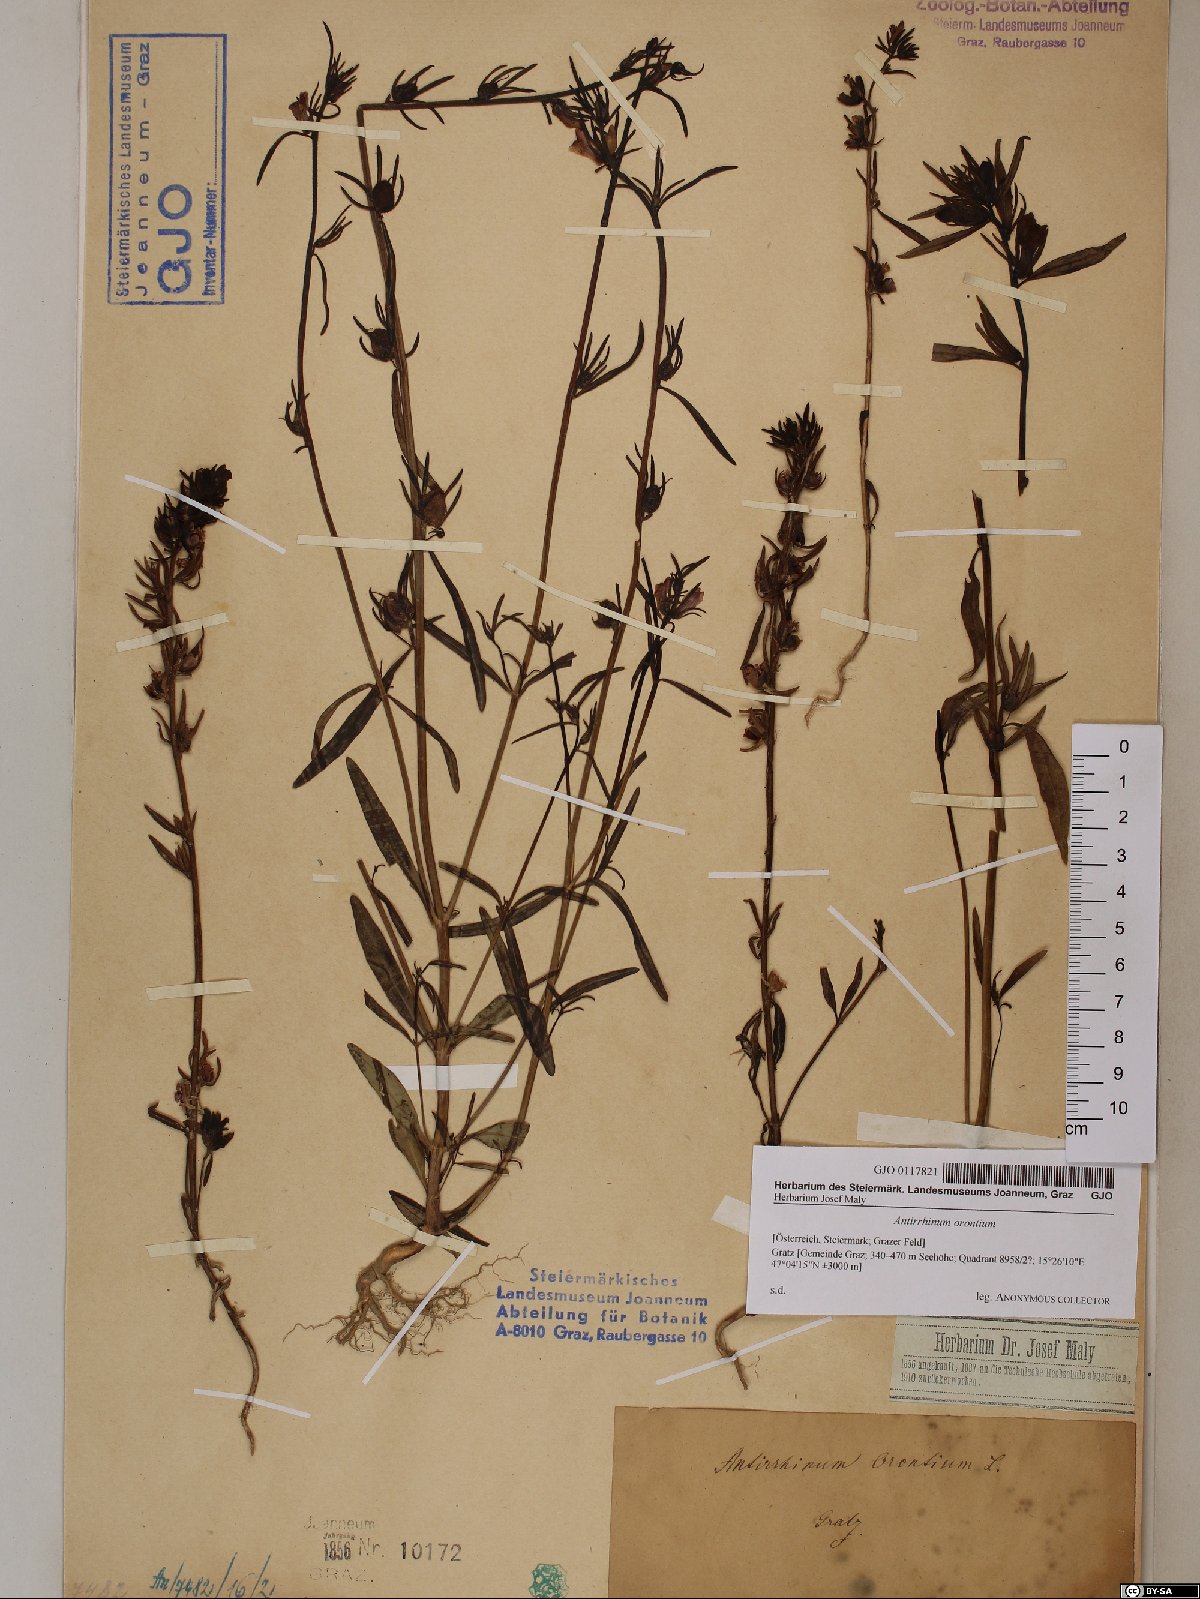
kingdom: Plantae
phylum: Tracheophyta
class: Magnoliopsida
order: Lamiales
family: Plantaginaceae
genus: Misopates
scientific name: Misopates orontium
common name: Weasel's-snout
